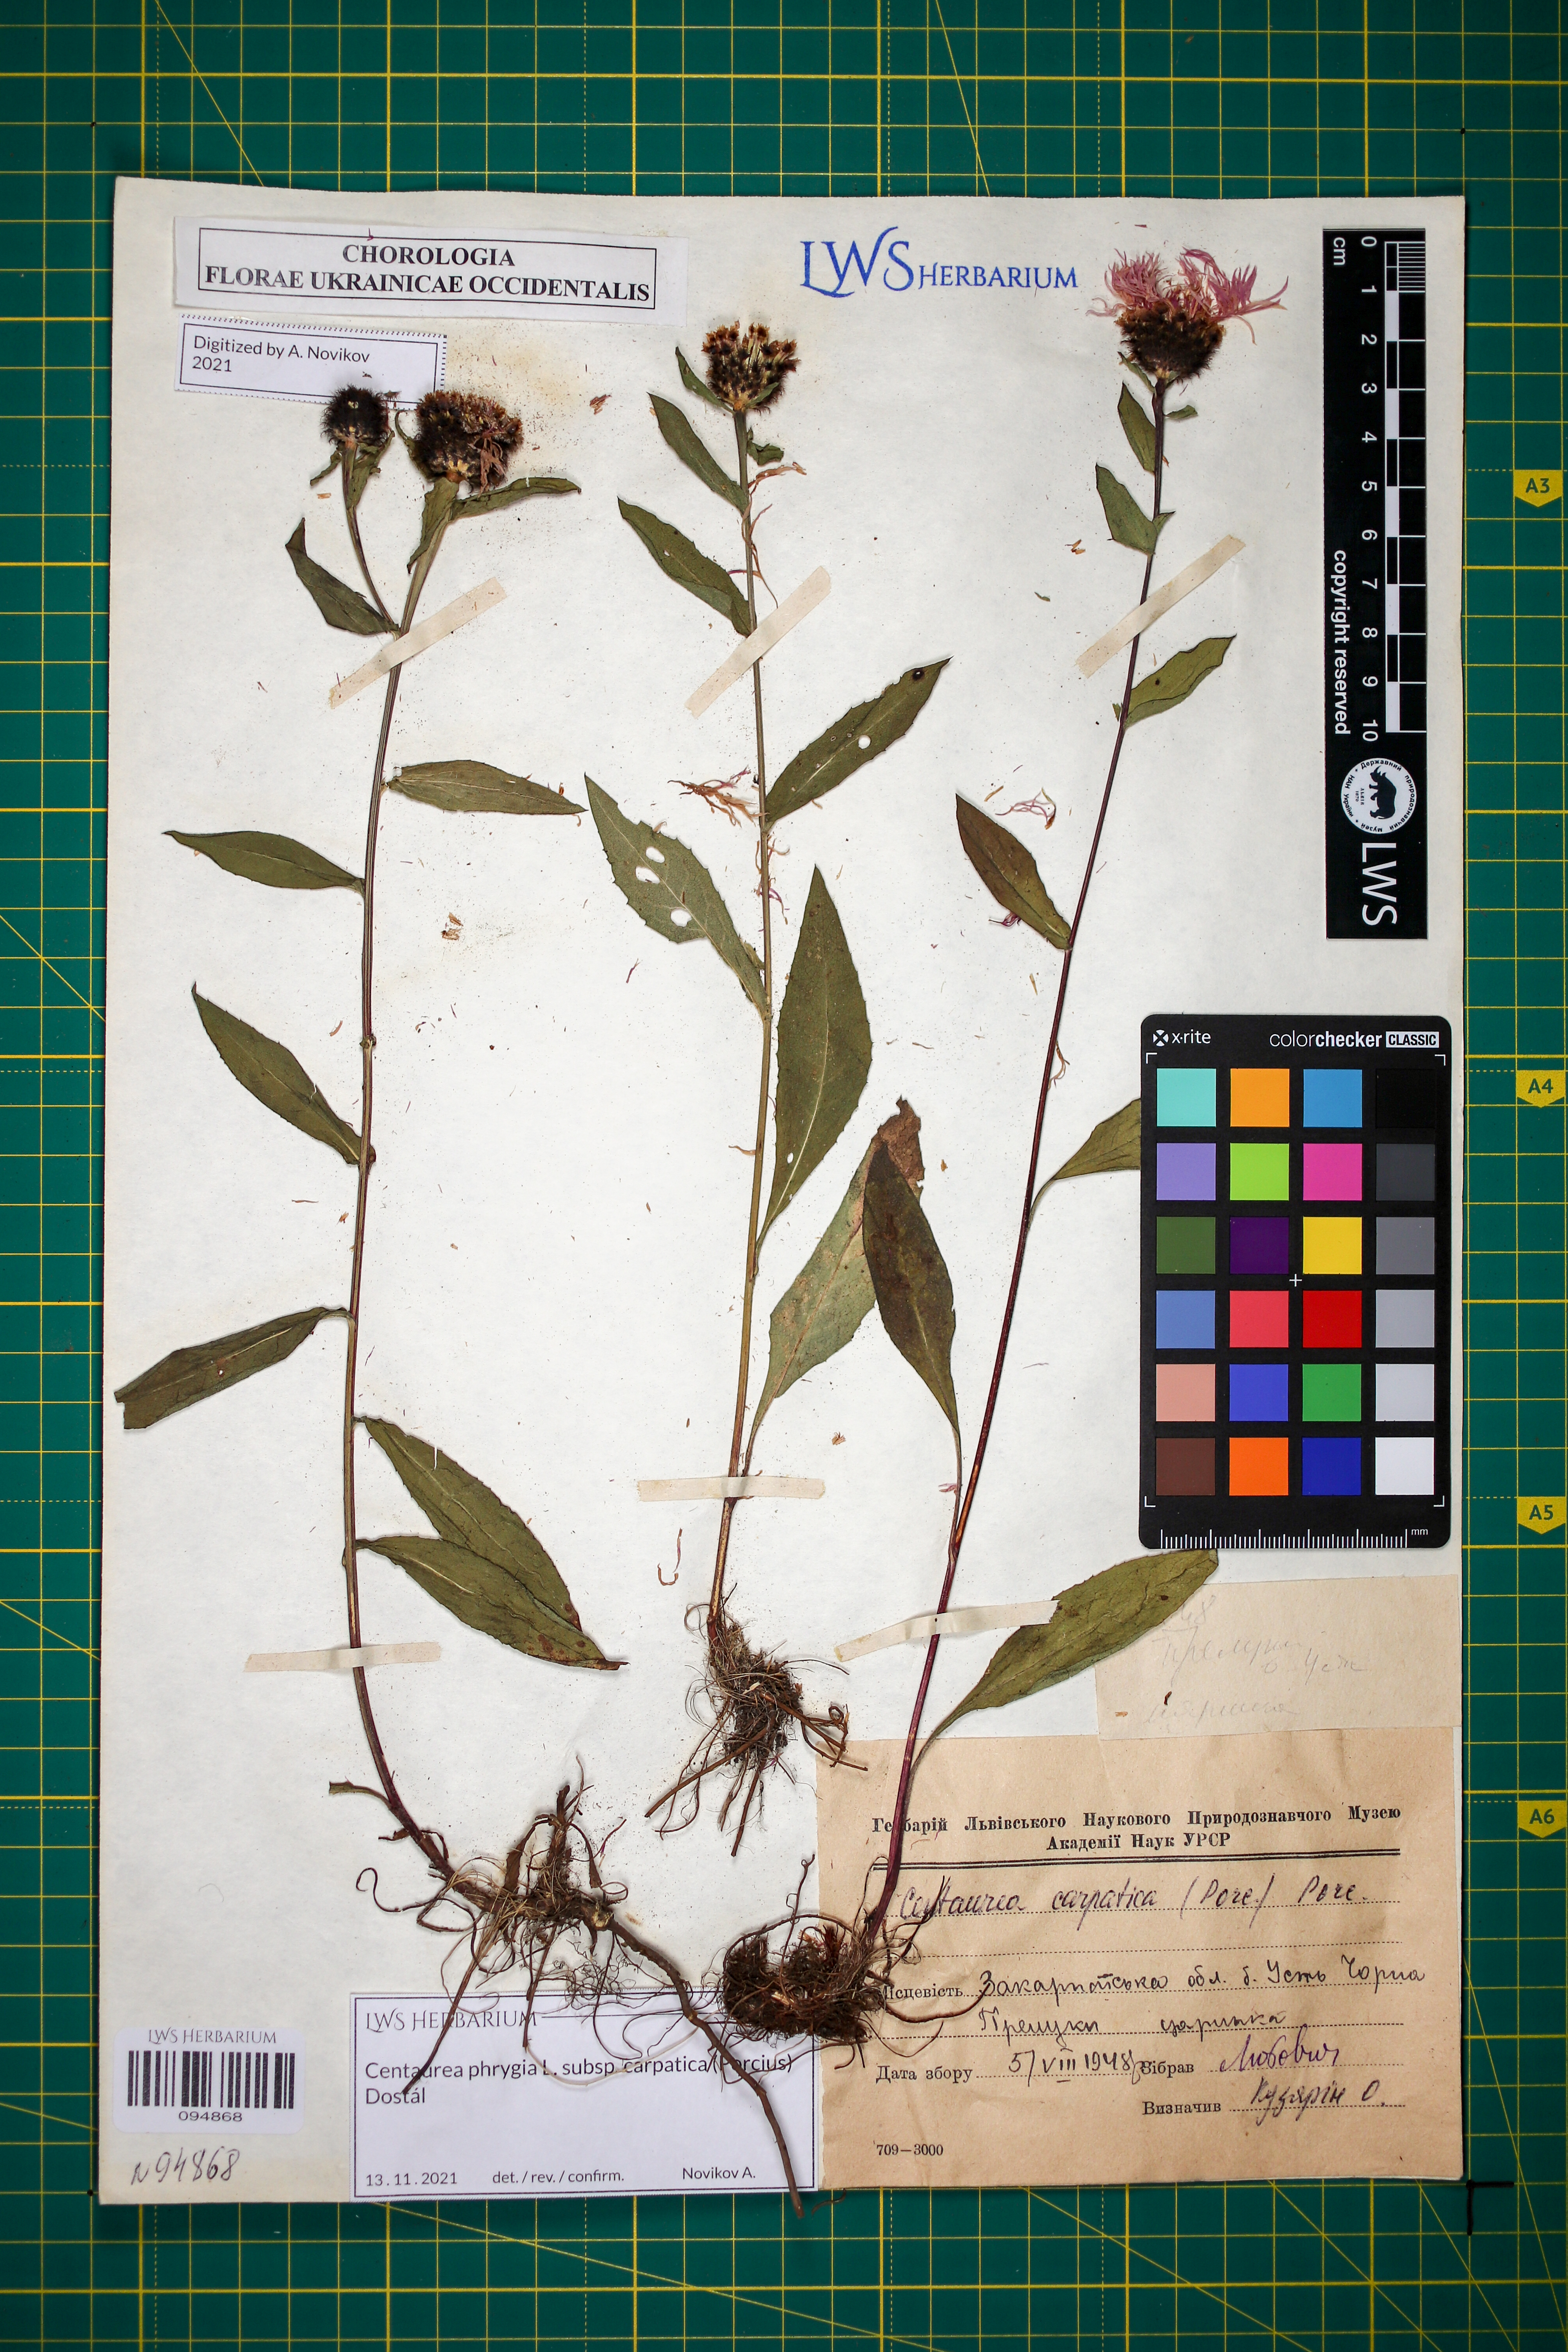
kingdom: Plantae
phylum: Tracheophyta
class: Magnoliopsida
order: Asterales
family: Asteraceae
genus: Centaurea
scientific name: Centaurea phrygia
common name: Wig knapweed
